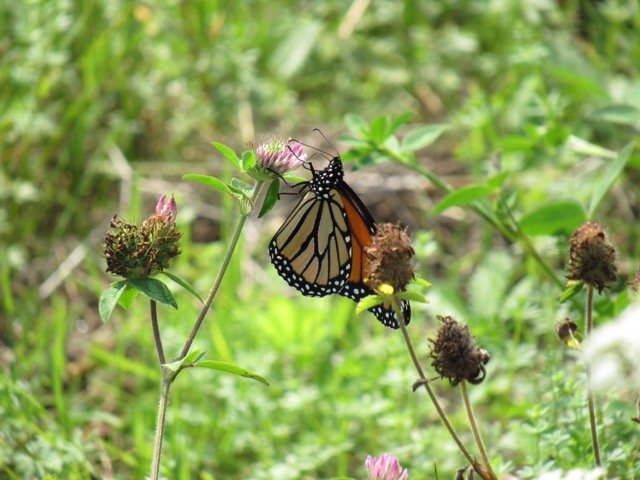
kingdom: Animalia
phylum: Arthropoda
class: Insecta
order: Lepidoptera
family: Nymphalidae
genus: Danaus
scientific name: Danaus plexippus
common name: Monarch
